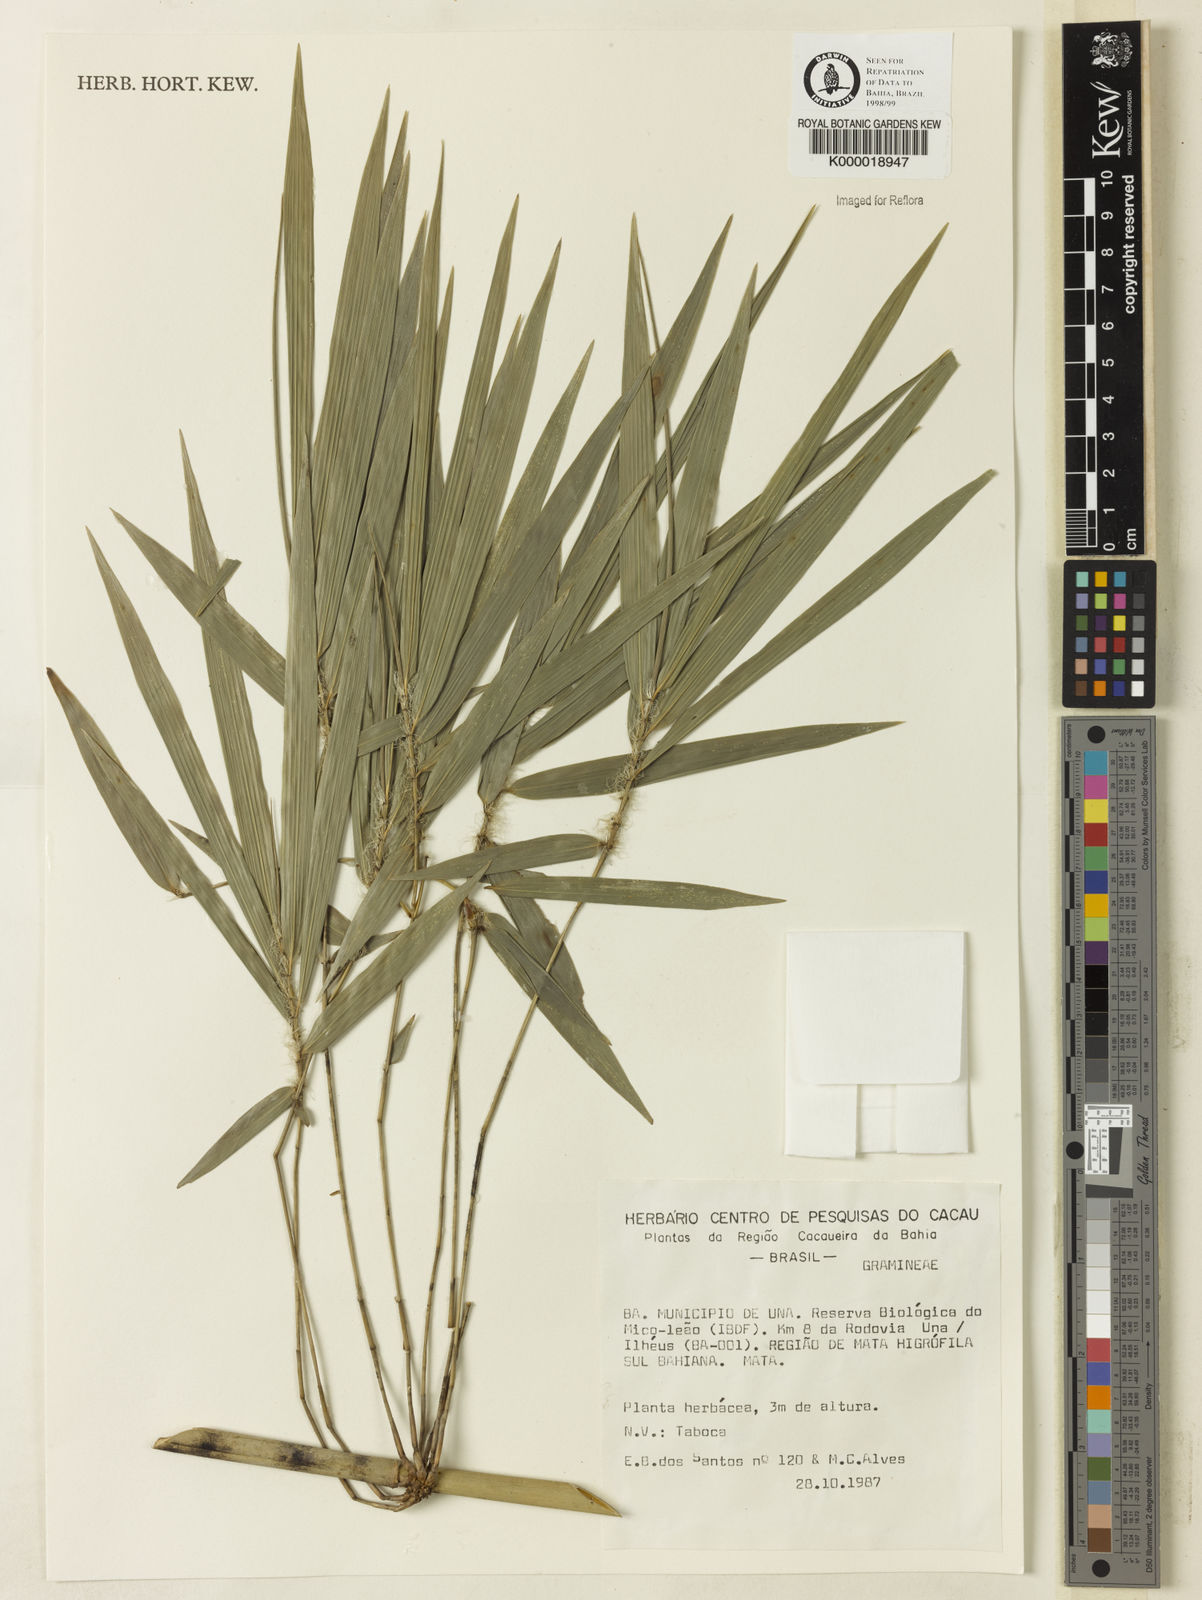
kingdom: Plantae
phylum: Tracheophyta
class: Liliopsida
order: Poales
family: Poaceae
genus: Merostachys
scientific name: Merostachys calderoniana
